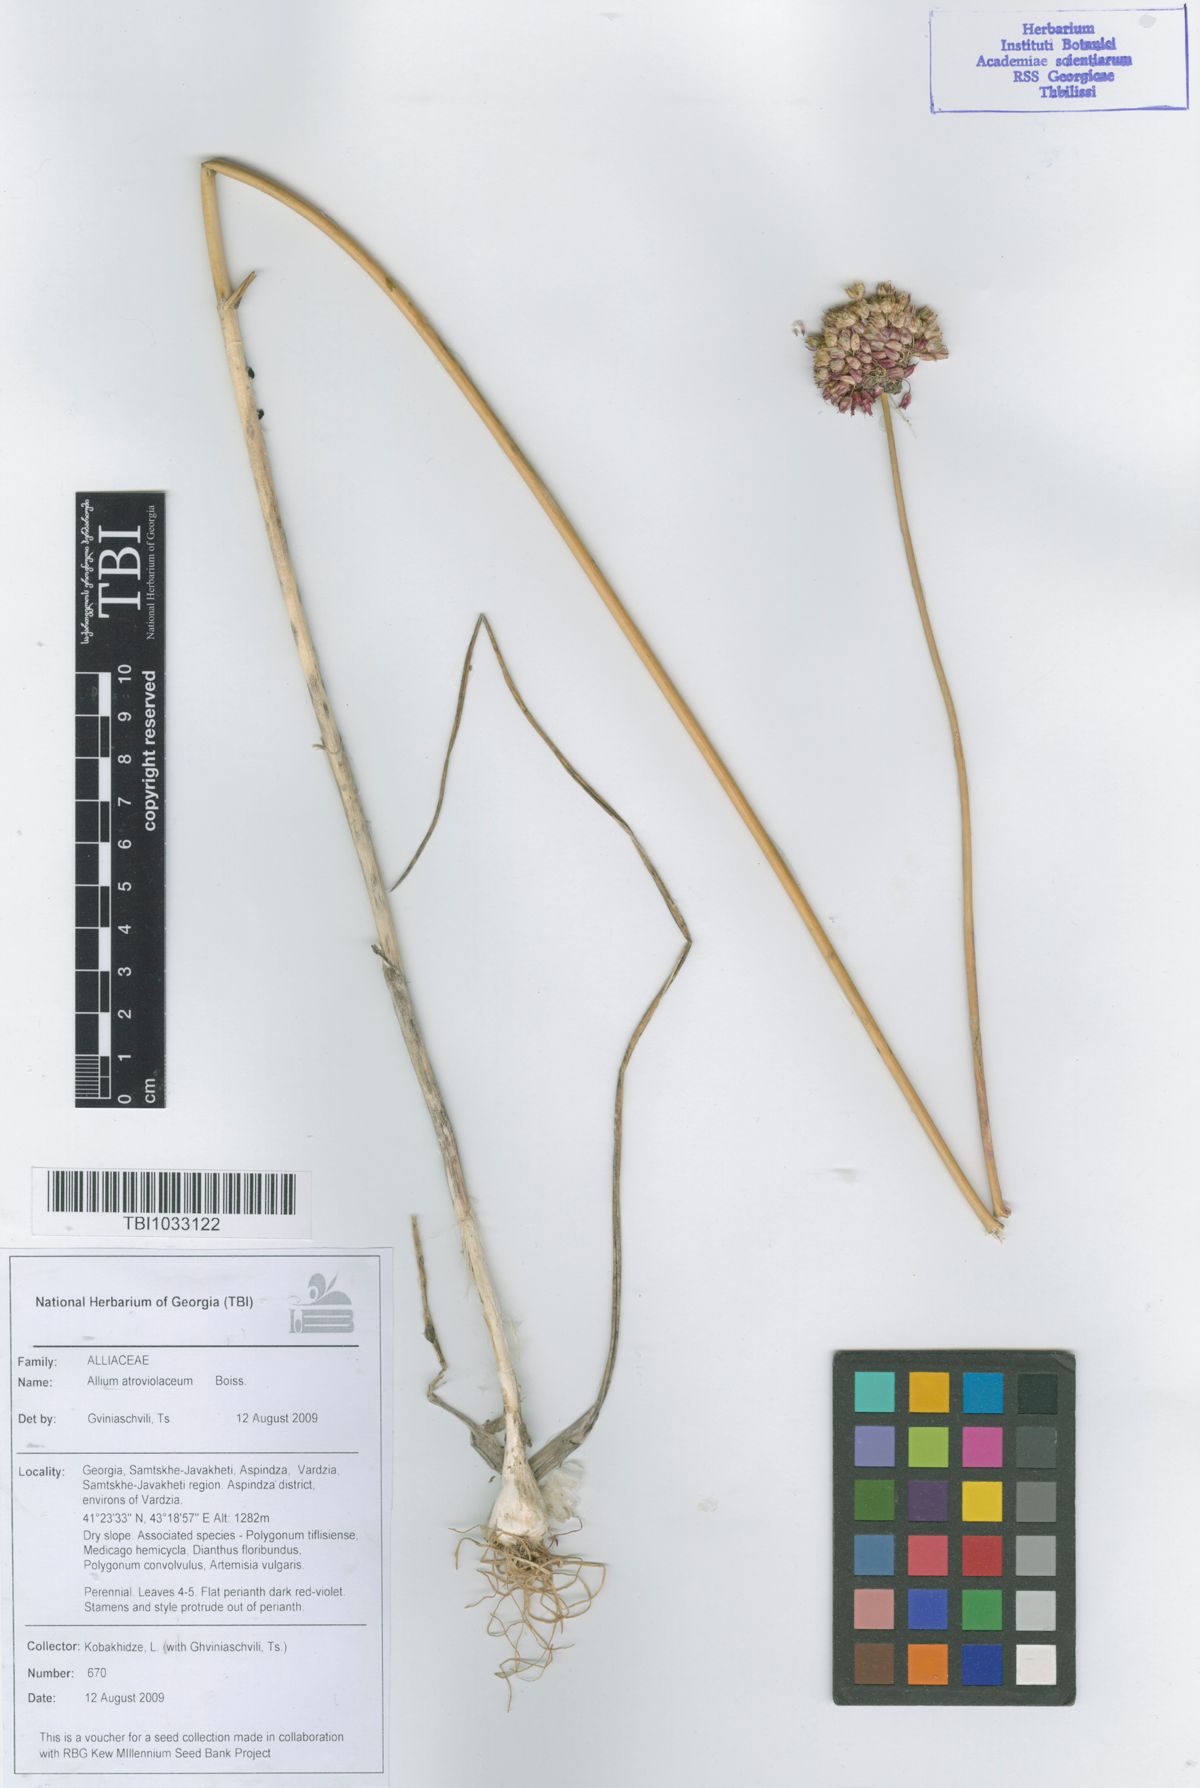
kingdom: Plantae
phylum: Tracheophyta
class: Liliopsida
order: Asparagales
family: Amaryllidaceae
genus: Allium
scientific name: Allium atroviolaceum
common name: Broadleaf wild leek
